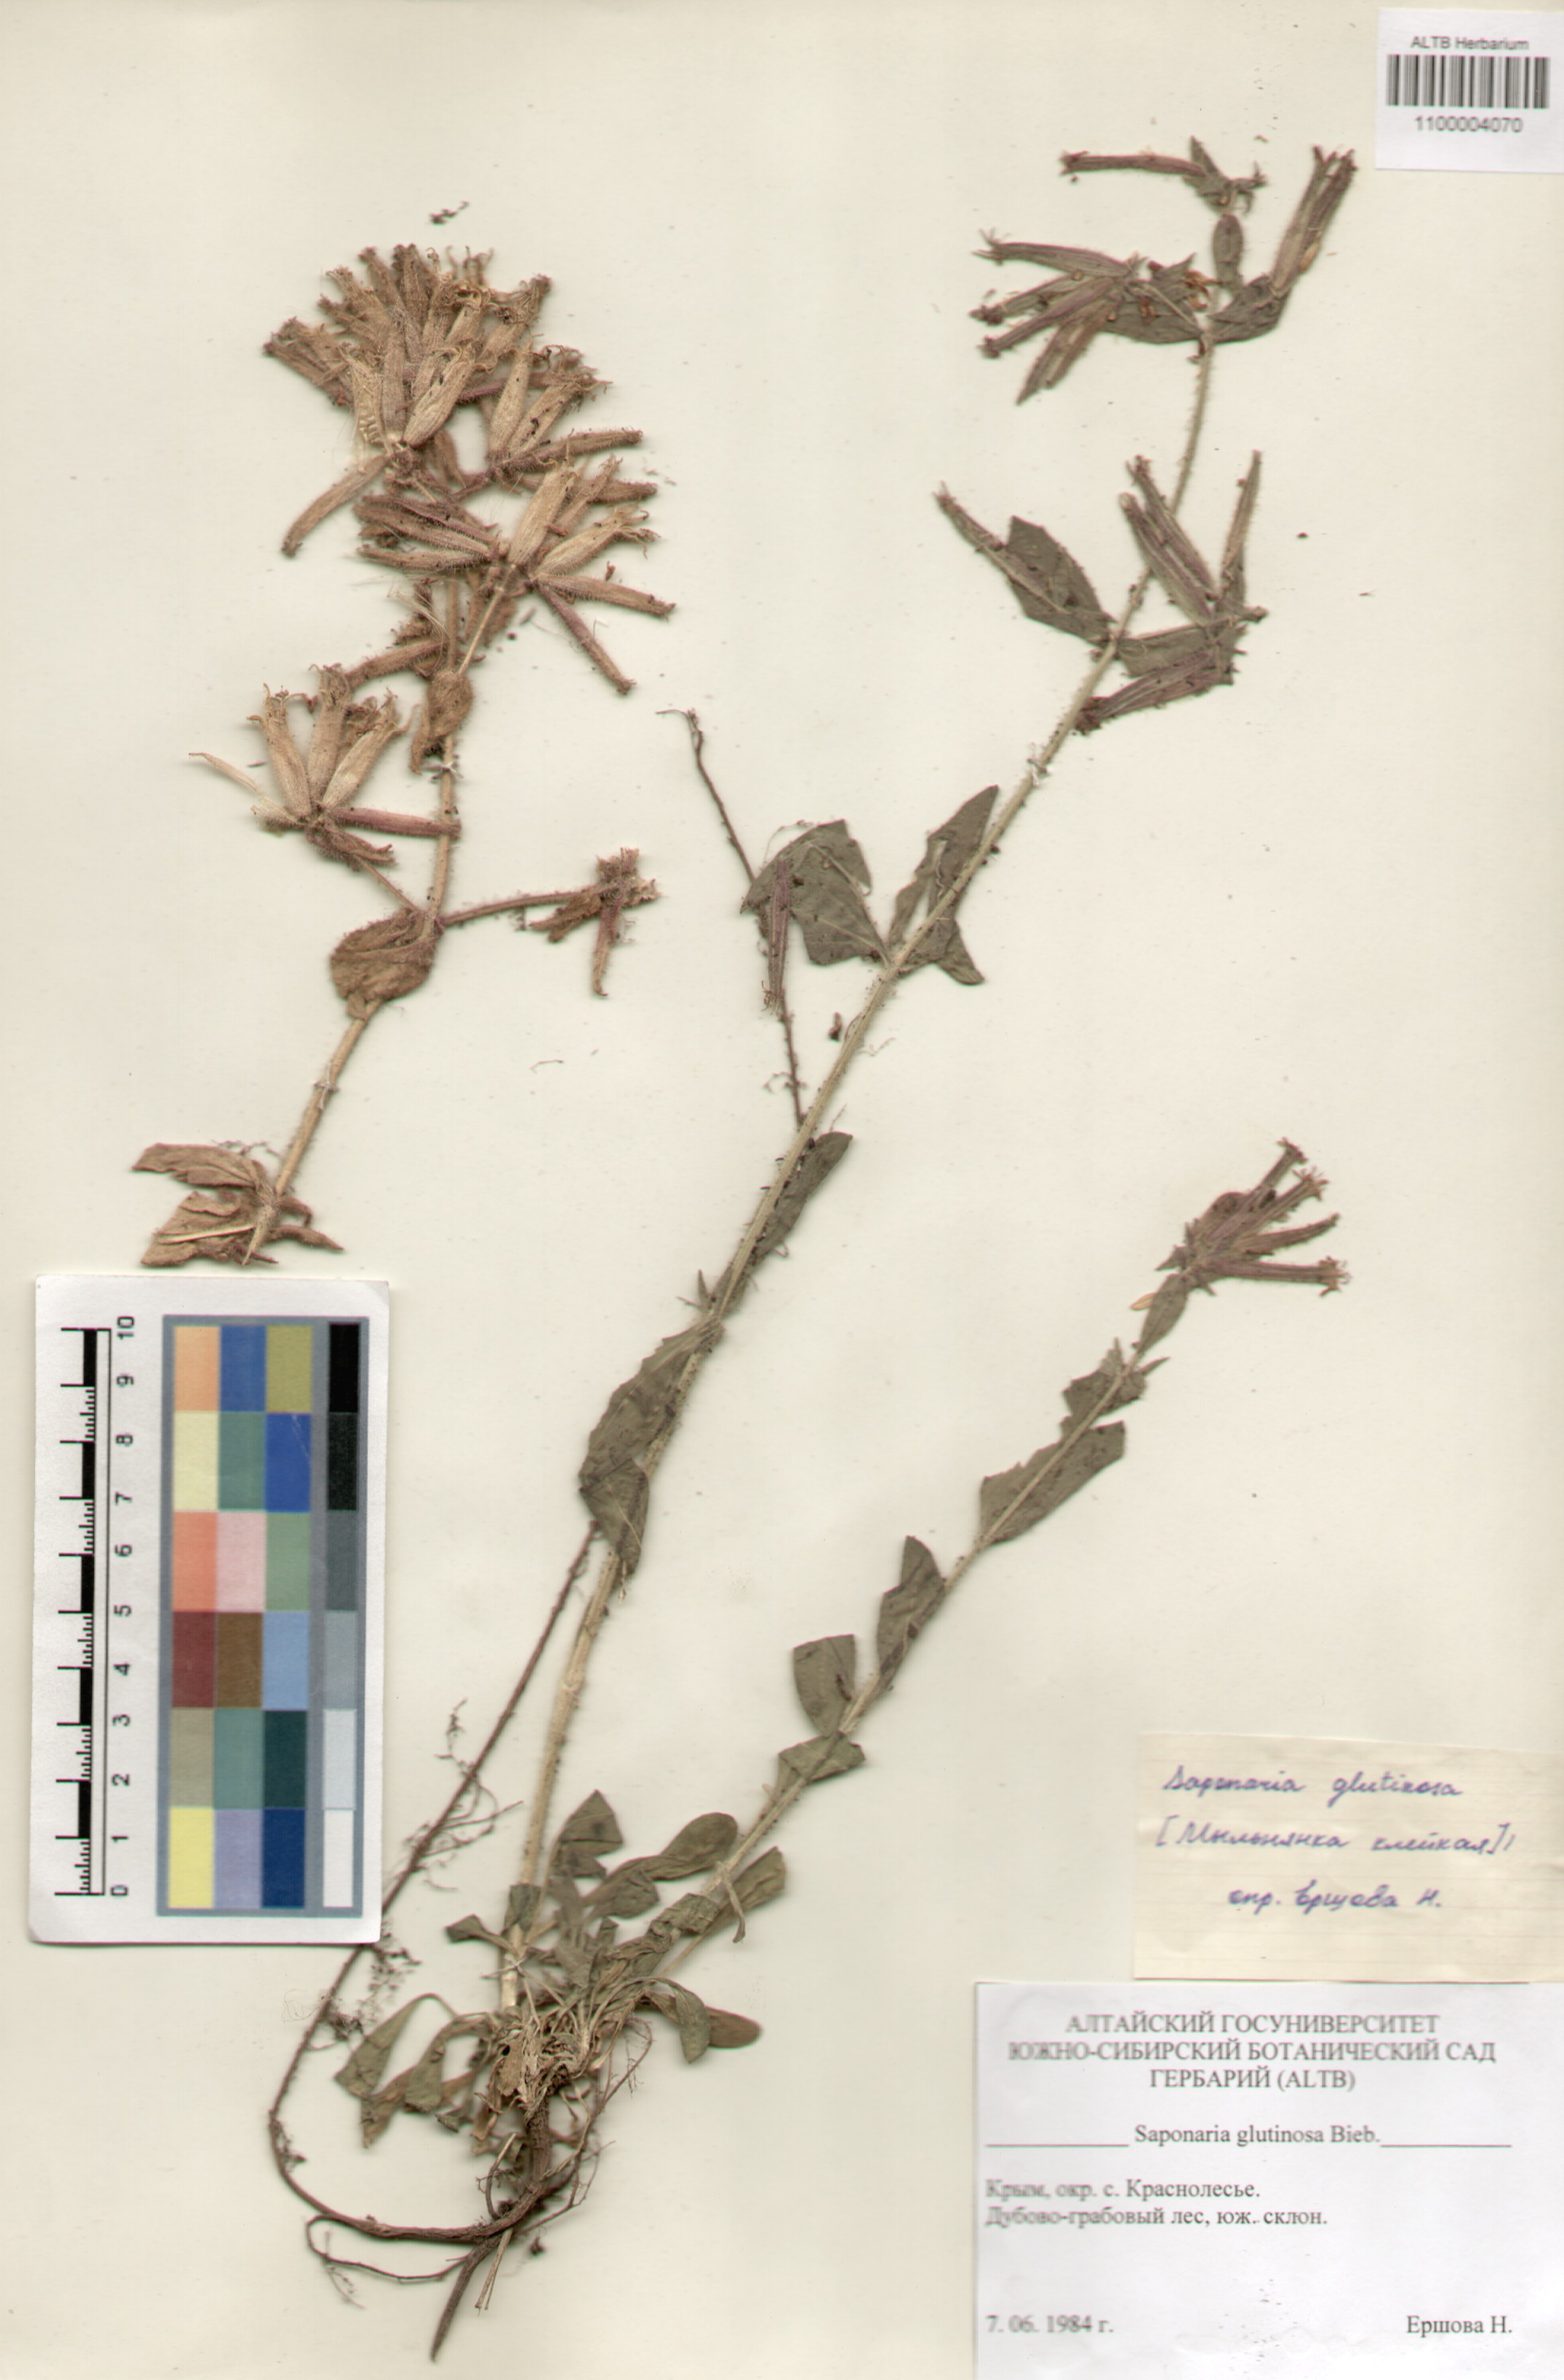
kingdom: Plantae
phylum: Tracheophyta
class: Magnoliopsida
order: Caryophyllales
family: Caryophyllaceae
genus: Saponaria
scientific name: Saponaria glutinosa
